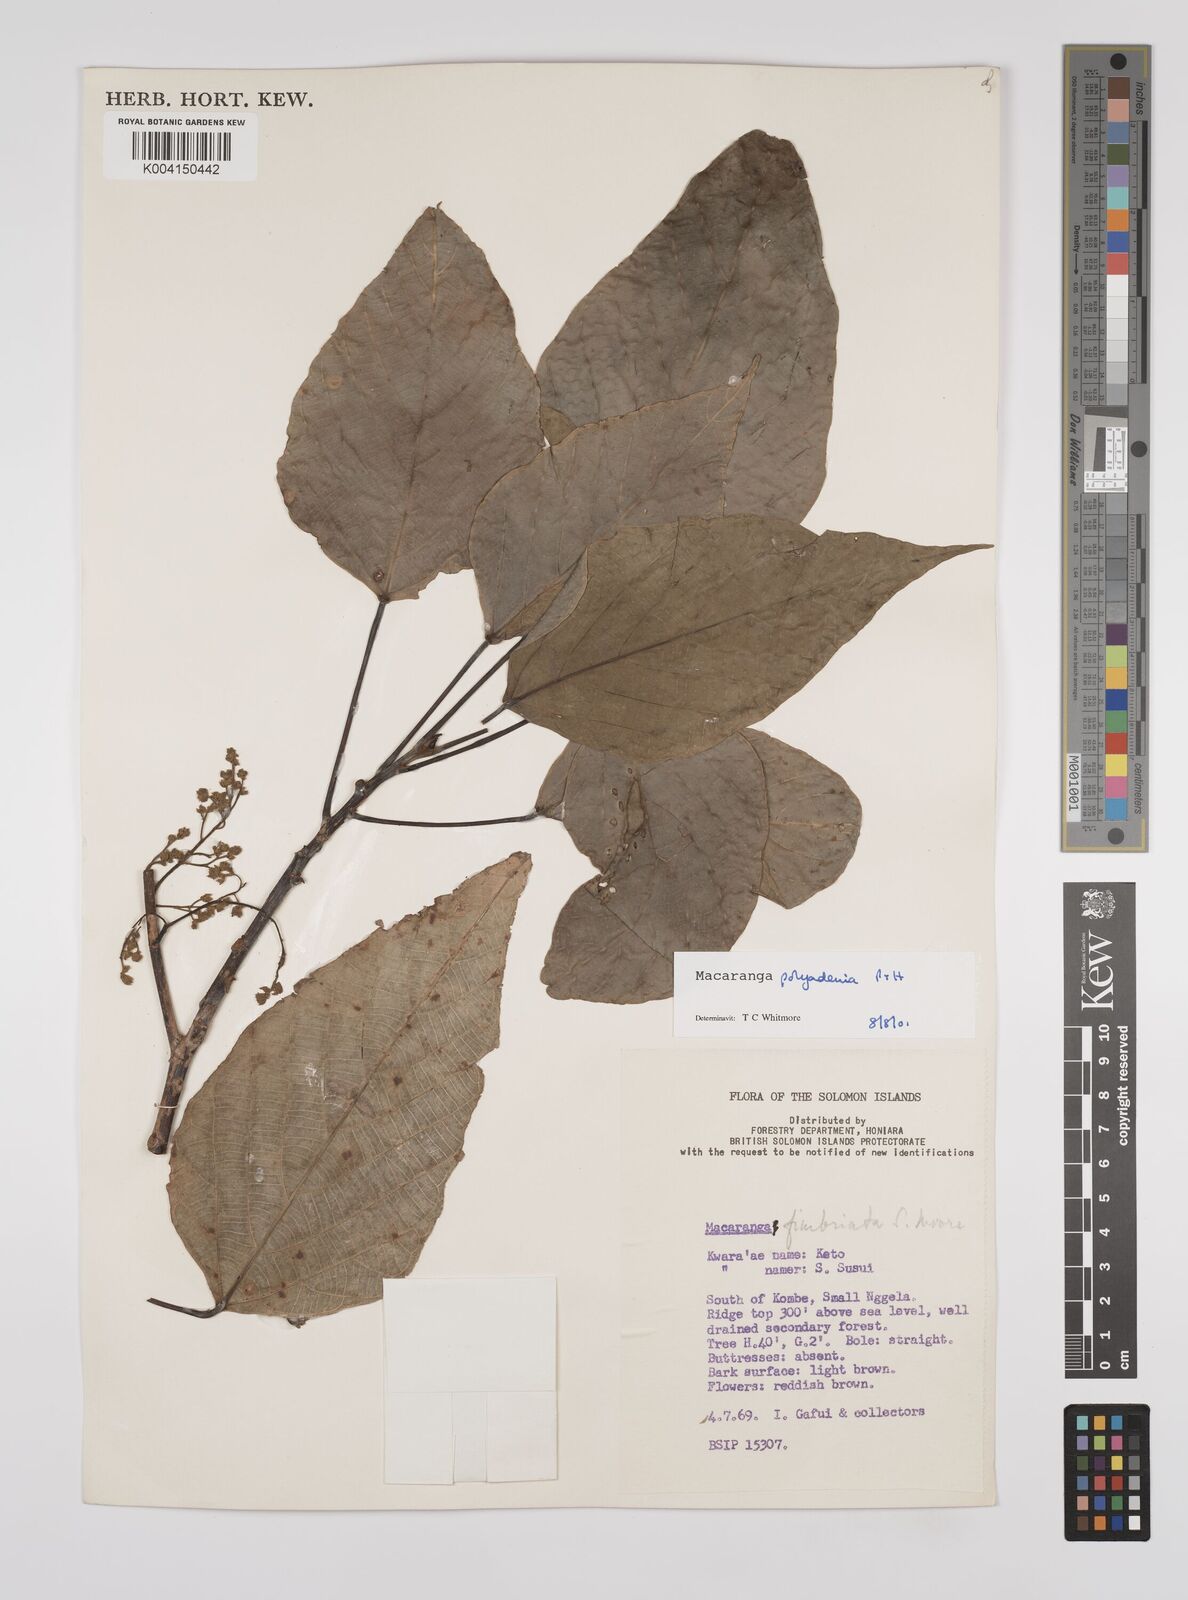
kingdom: Plantae
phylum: Tracheophyta
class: Magnoliopsida
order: Malpighiales
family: Euphorbiaceae
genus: Macaranga
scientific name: Macaranga polyadenia
